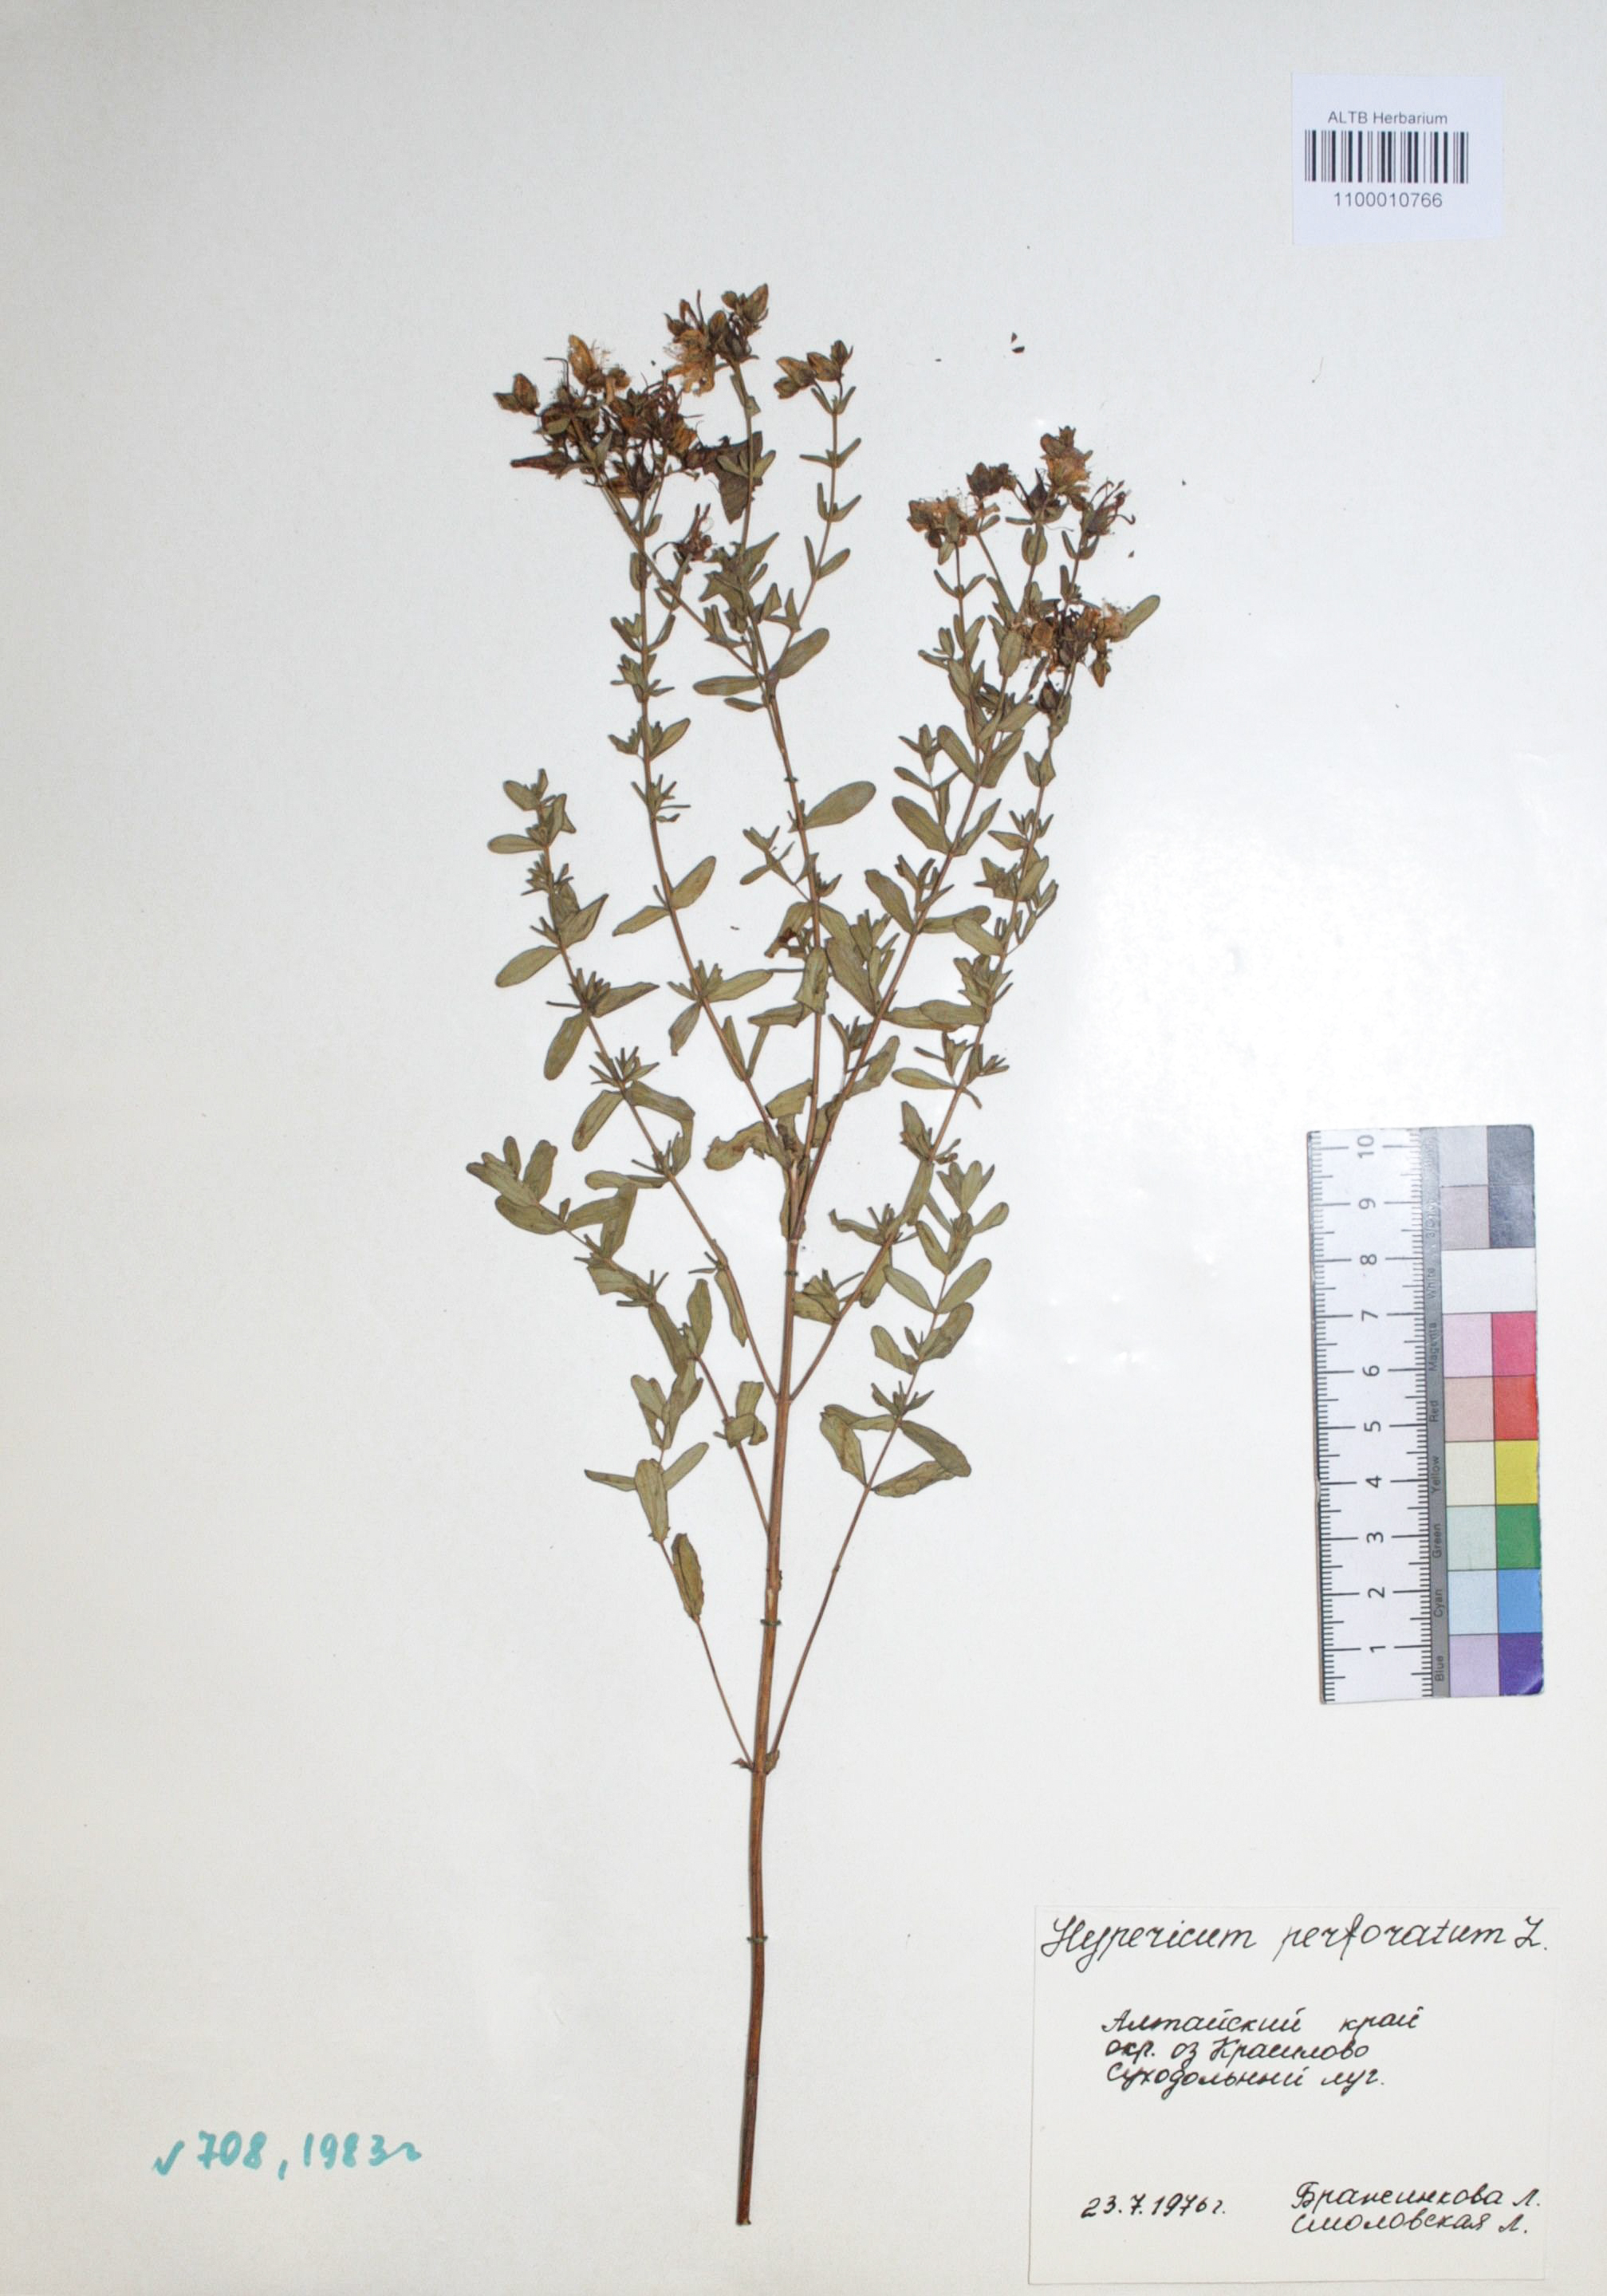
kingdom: Plantae
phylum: Tracheophyta
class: Magnoliopsida
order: Malpighiales
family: Hypericaceae
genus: Hypericum
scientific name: Hypericum perforatum
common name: Common st. johnswort
